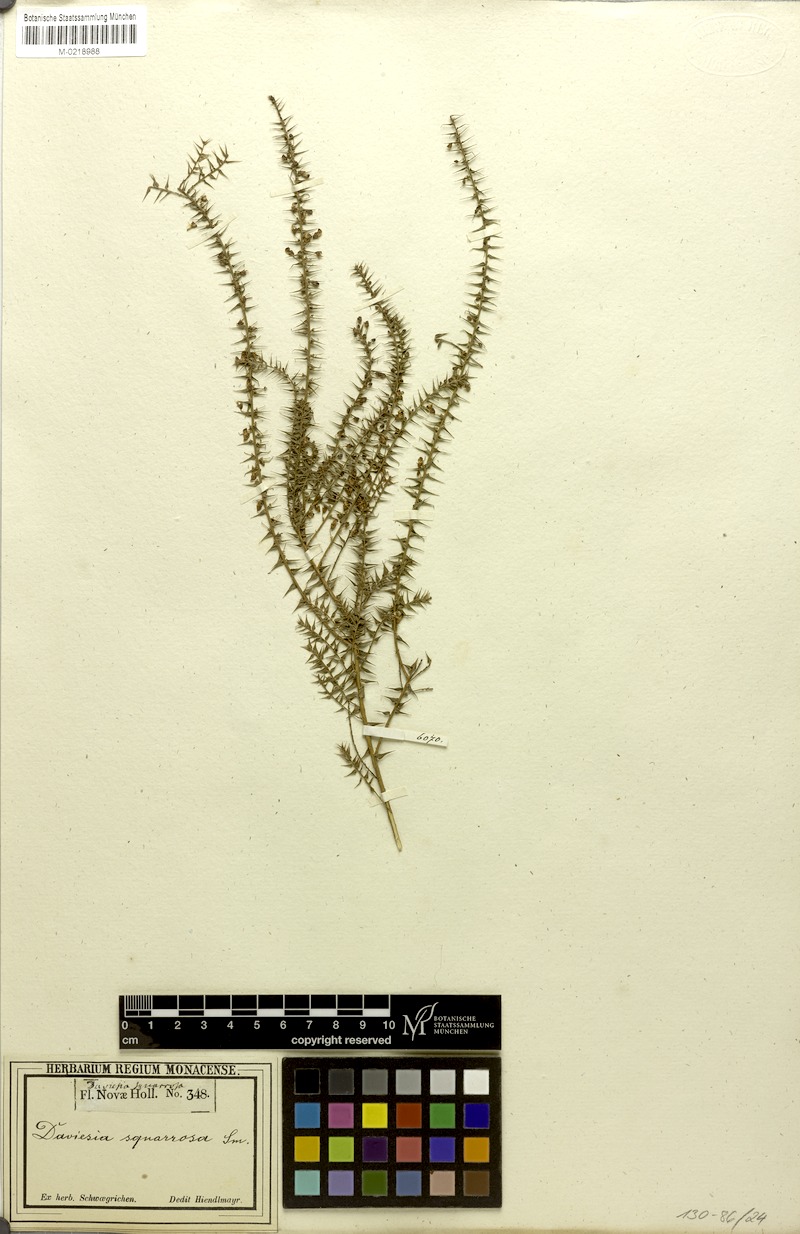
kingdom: Plantae
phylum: Tracheophyta
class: Magnoliopsida
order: Fabales
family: Fabaceae
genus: Daviesia
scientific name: Daviesia squarrosa
